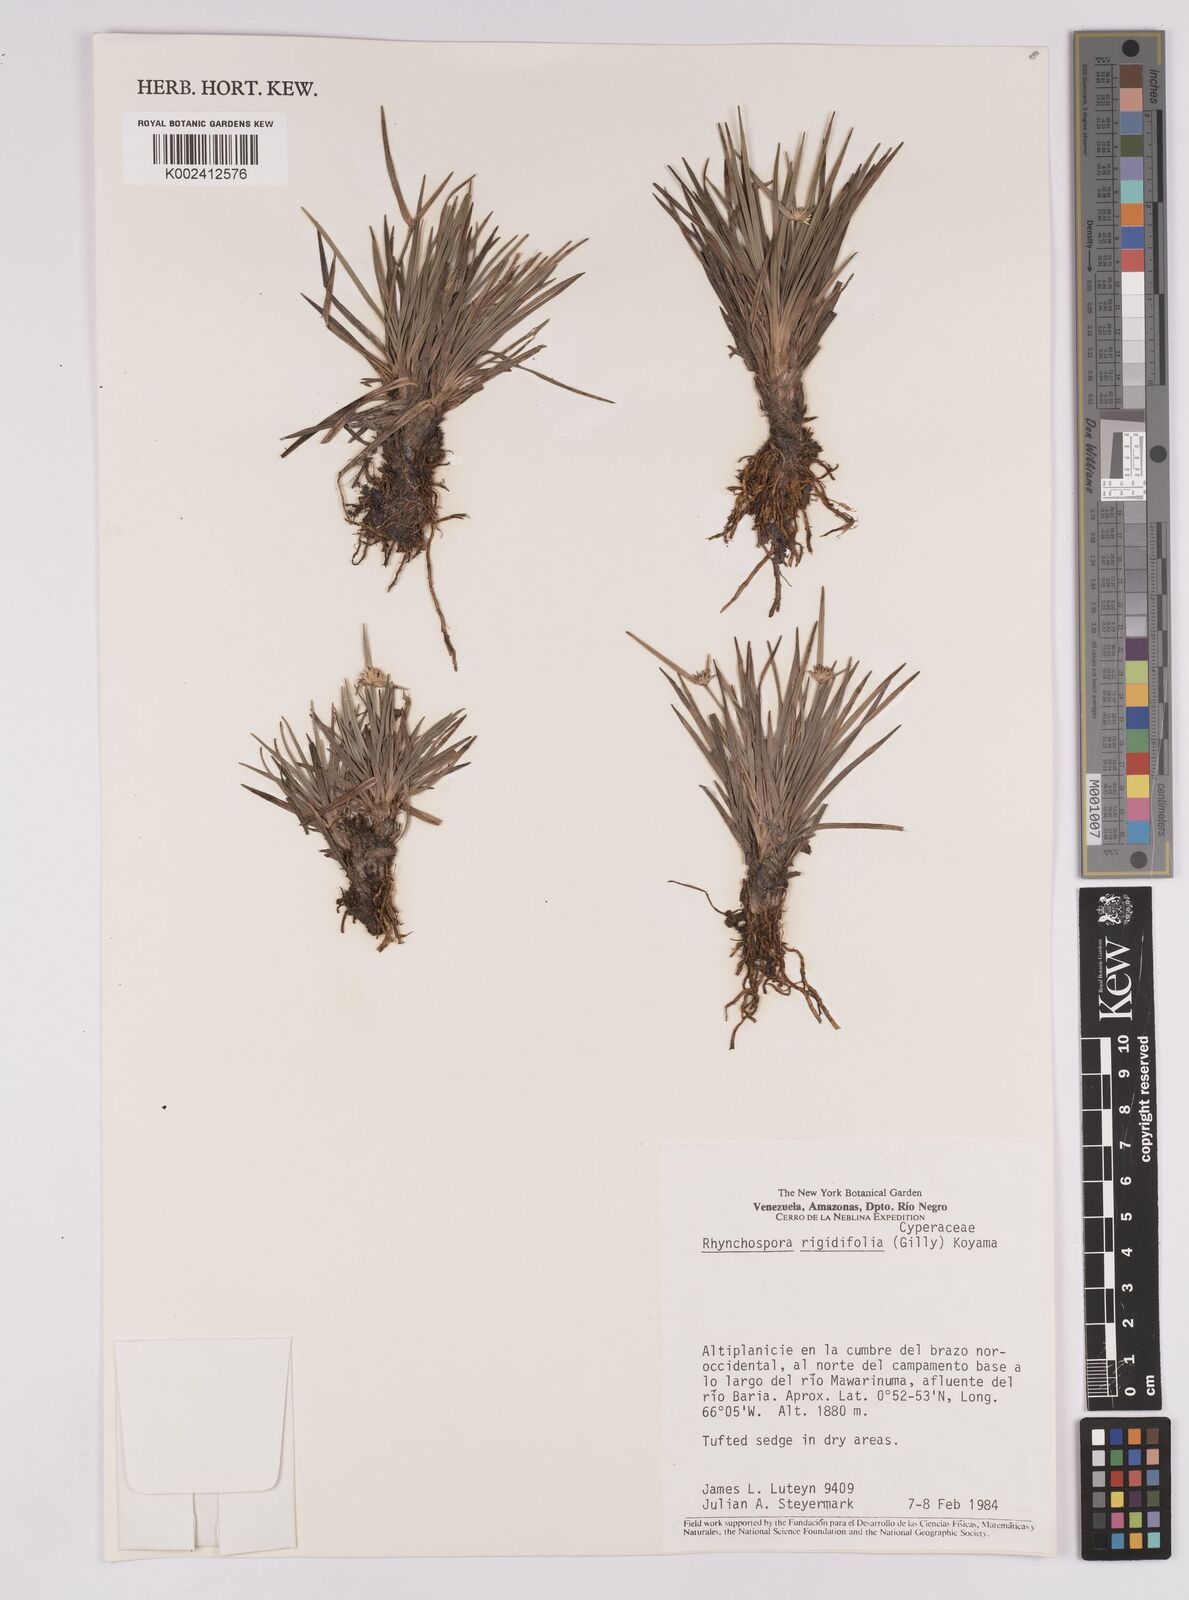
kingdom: Plantae
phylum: Tracheophyta
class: Liliopsida
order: Poales
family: Cyperaceae
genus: Rhynchospora
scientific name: Rhynchospora rigidifolia
